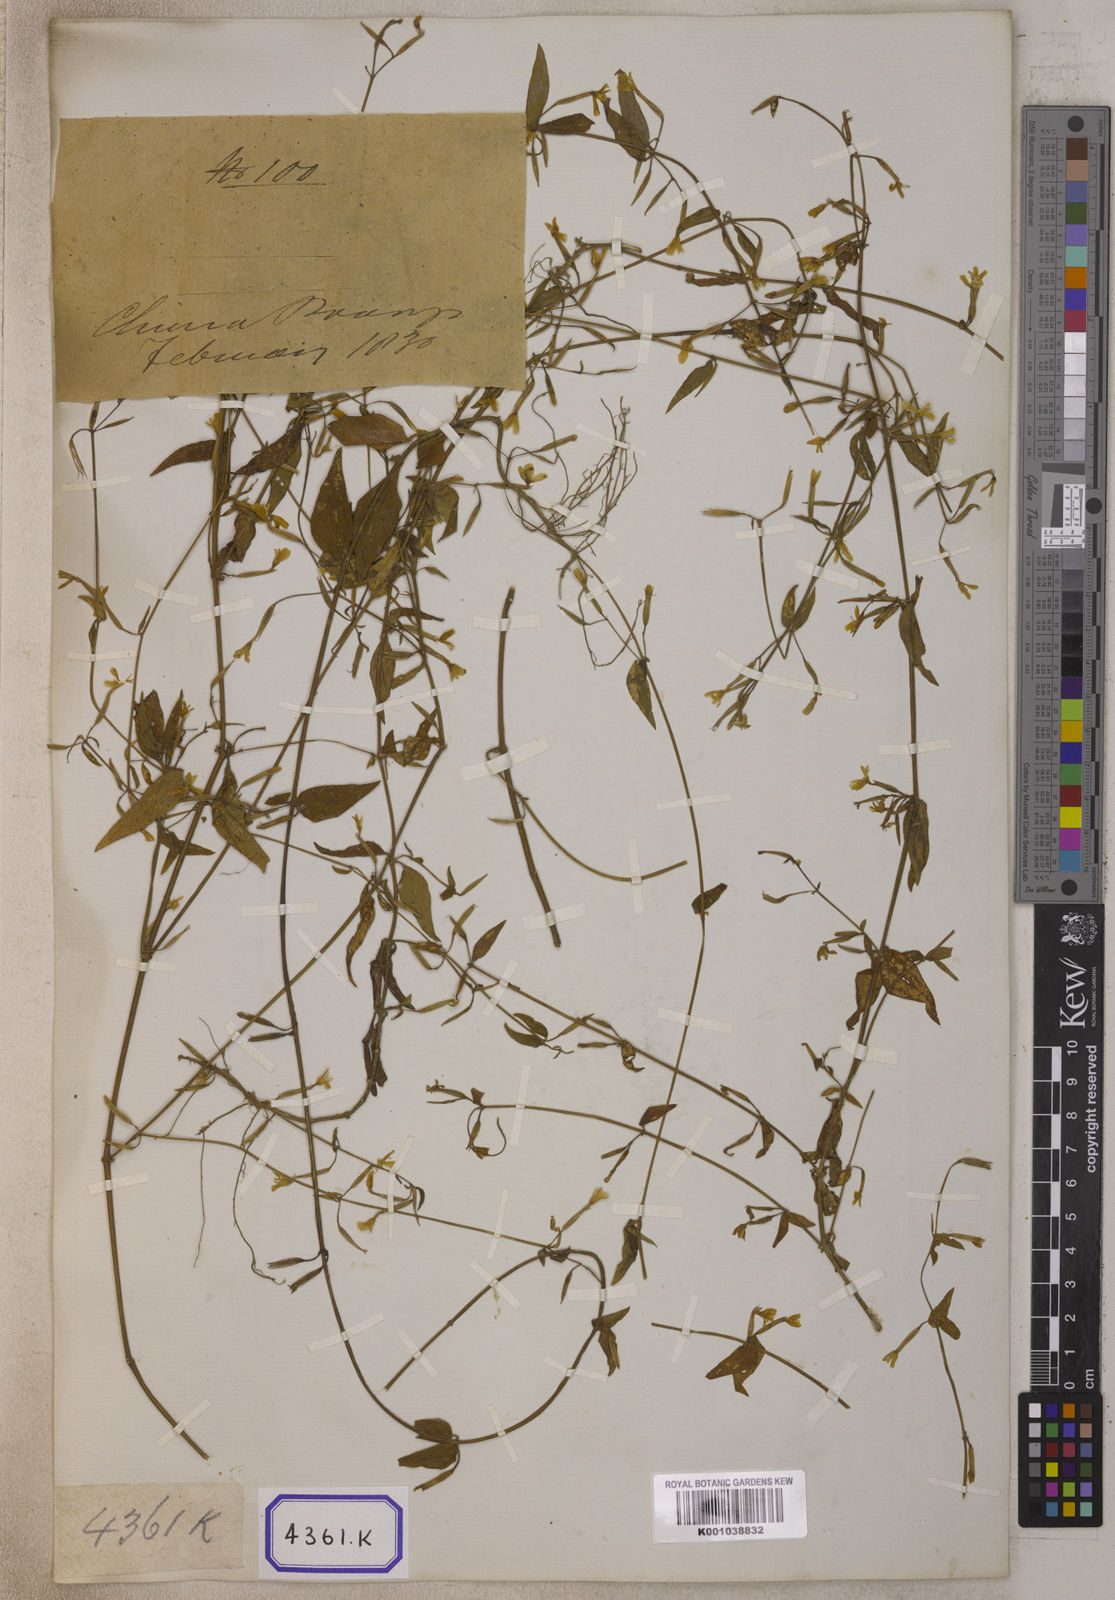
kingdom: Plantae
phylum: Tracheophyta
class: Magnoliopsida
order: Gentianales
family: Gentianaceae
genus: Canscora
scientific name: Canscora
